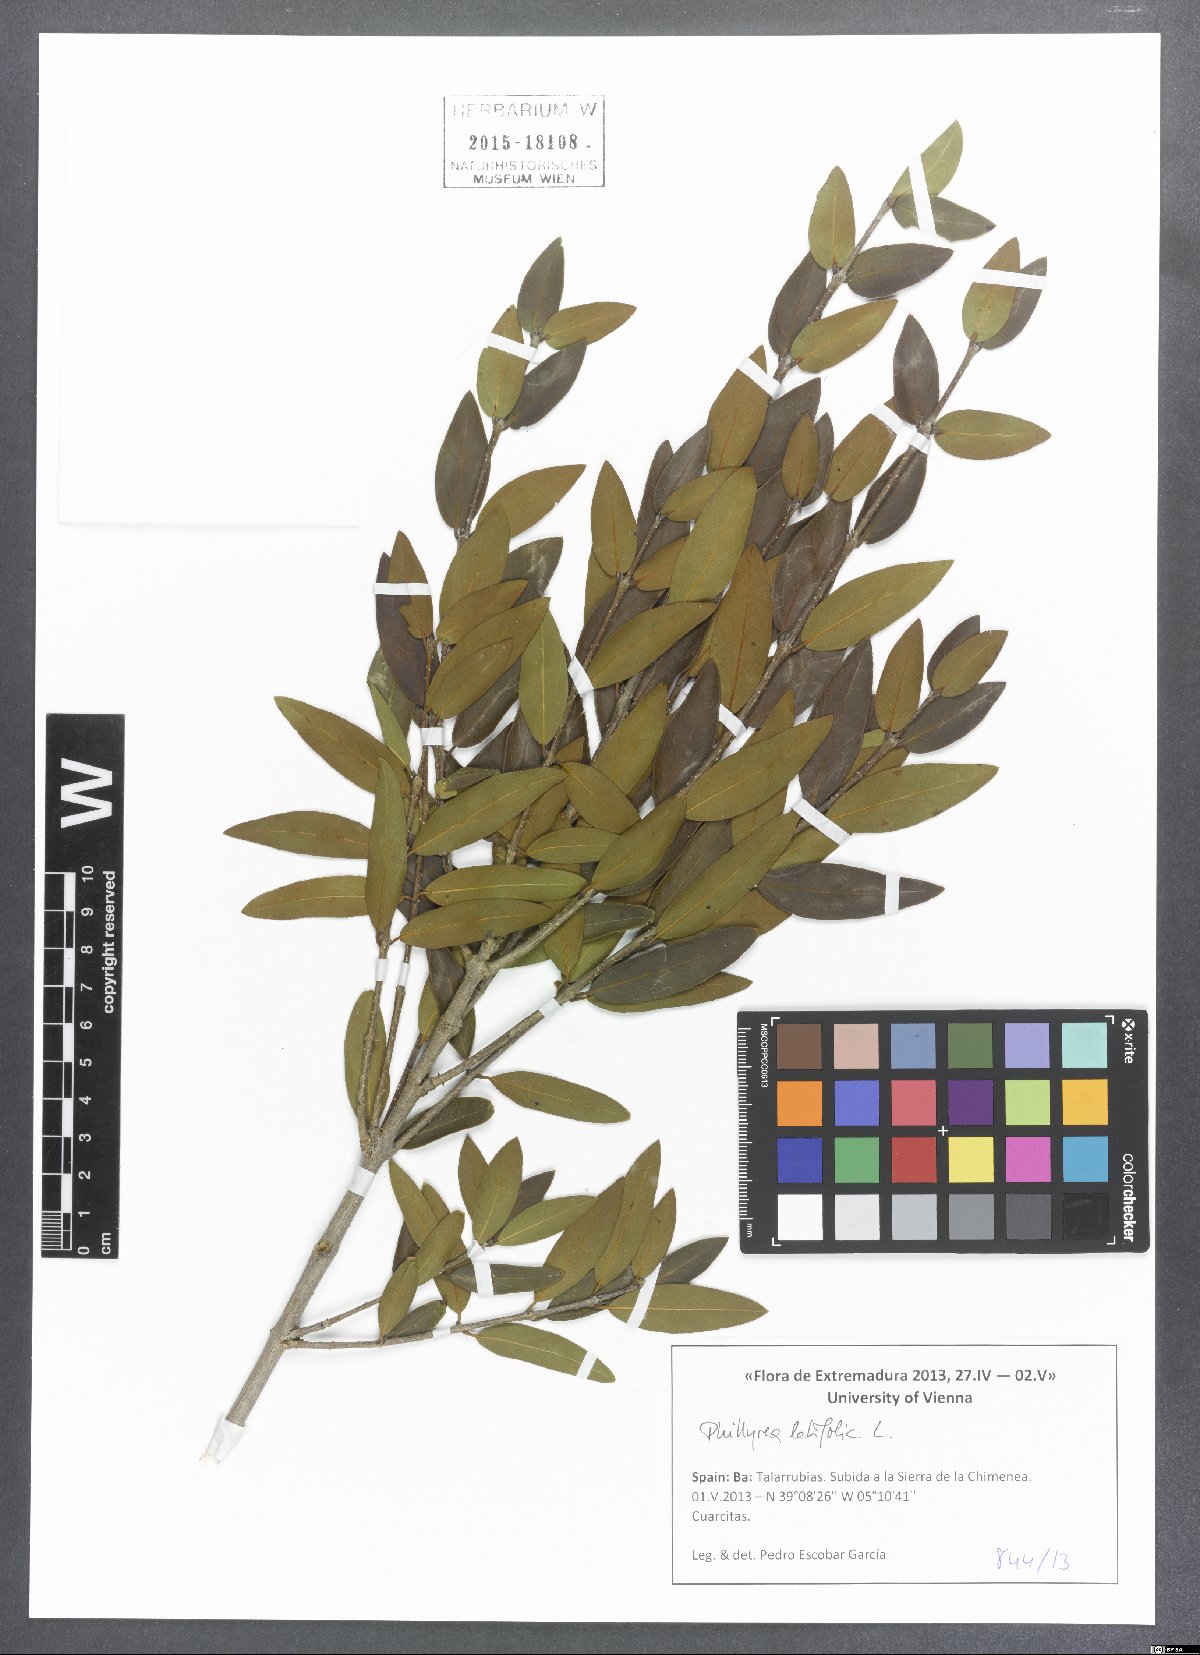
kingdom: Plantae
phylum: Tracheophyta
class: Magnoliopsida
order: Lamiales
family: Oleaceae
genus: Phillyrea
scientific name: Phillyrea latifolia
